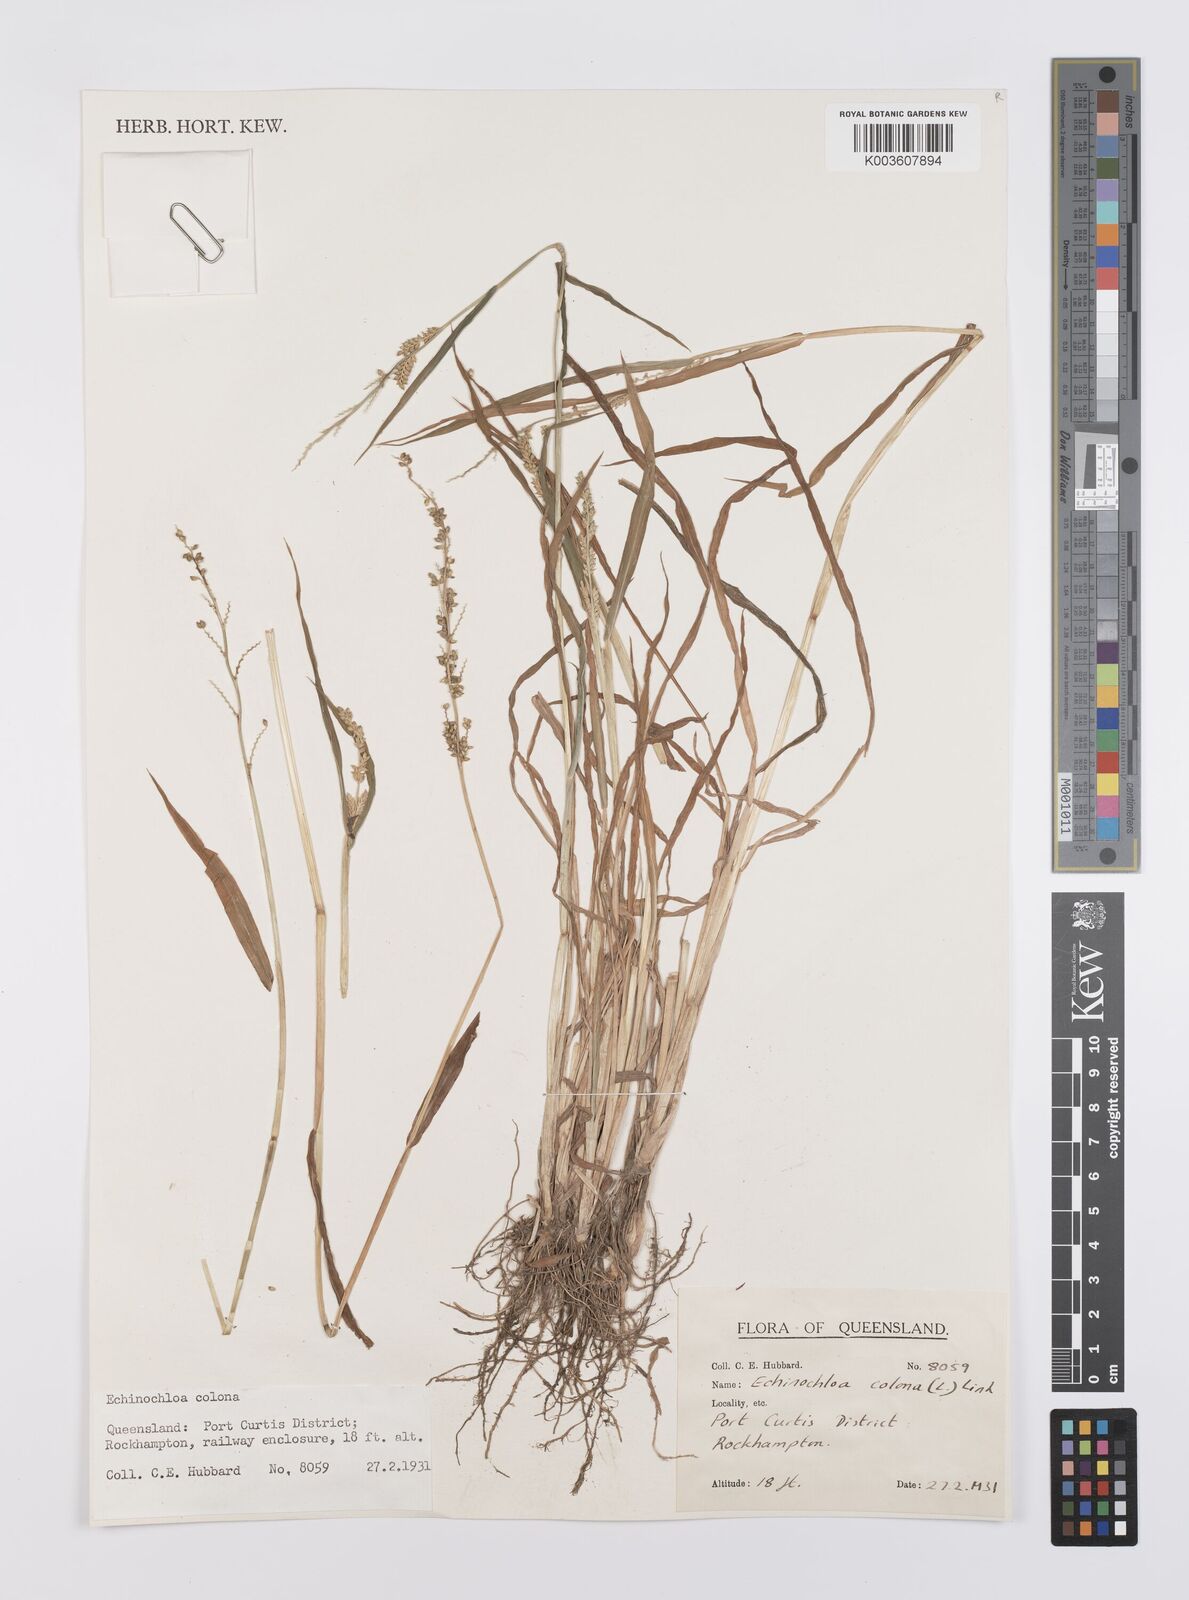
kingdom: Plantae
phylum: Tracheophyta
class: Liliopsida
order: Poales
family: Poaceae
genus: Echinochloa
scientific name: Echinochloa colonum
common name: Jungle rice
